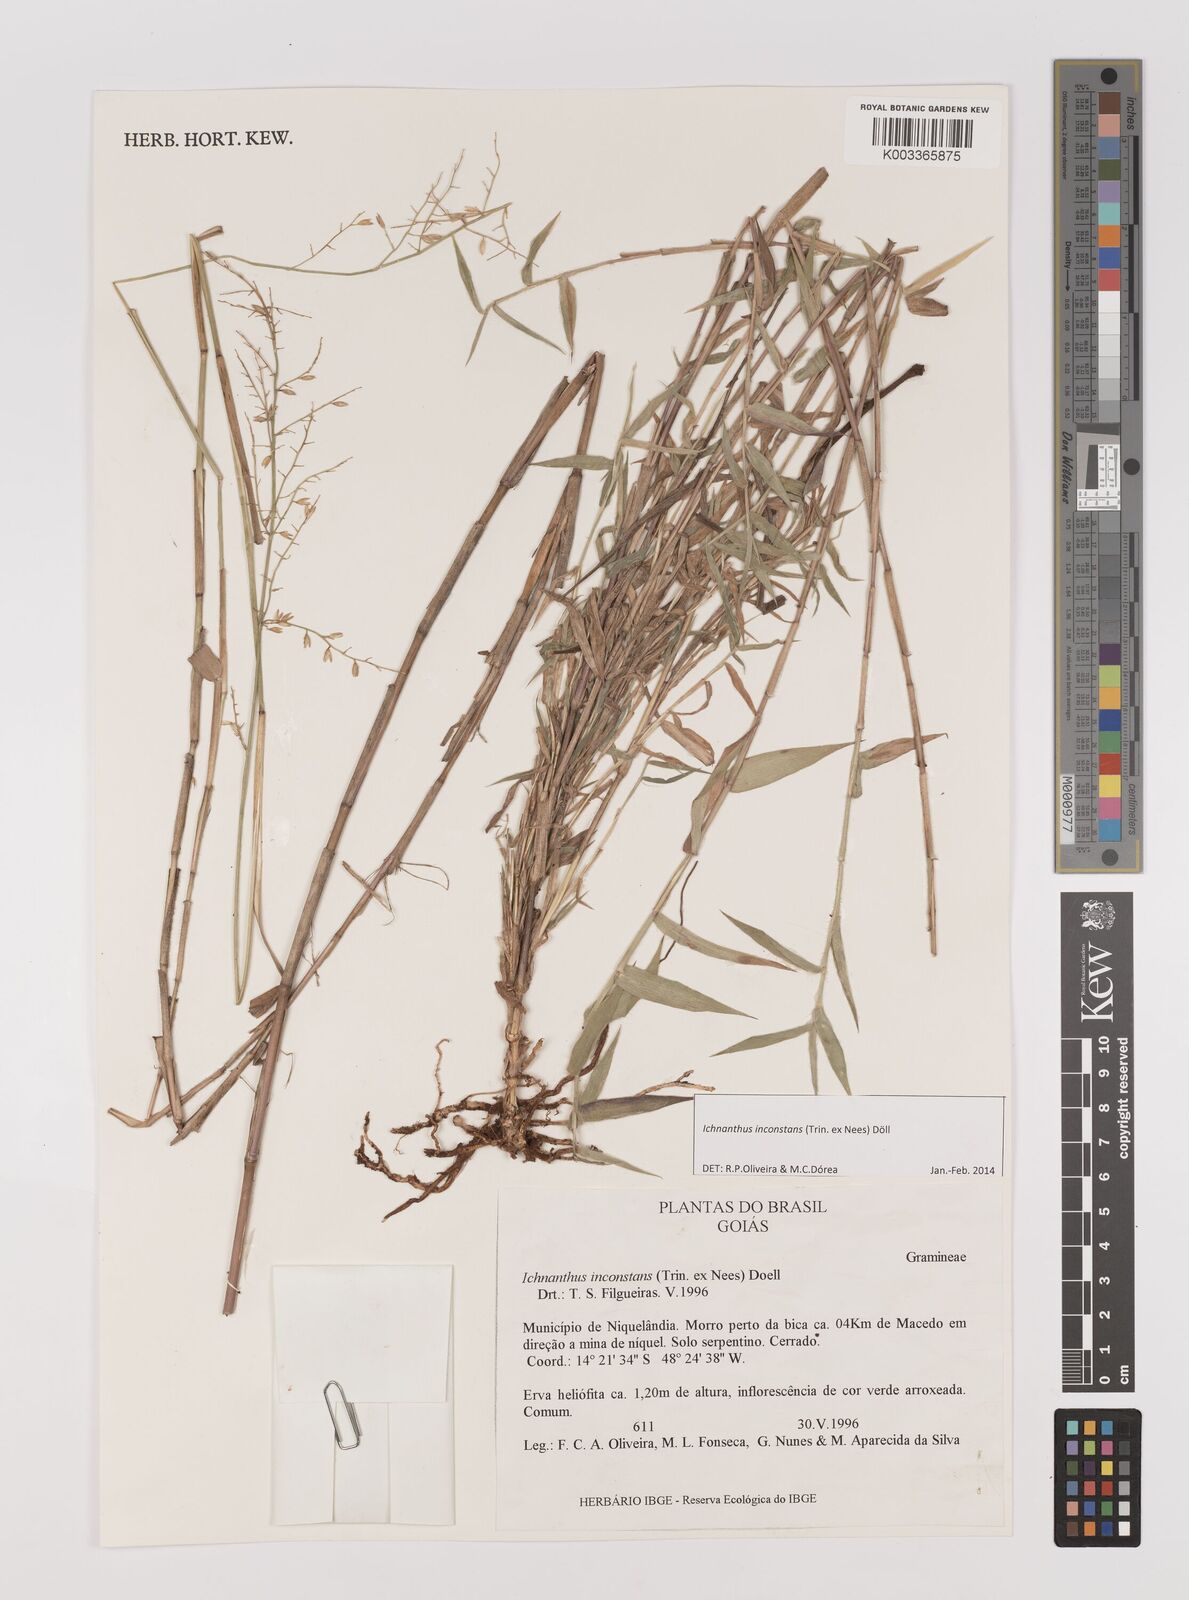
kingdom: Plantae
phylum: Tracheophyta
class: Liliopsida
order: Poales
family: Poaceae
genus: Ichnanthus
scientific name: Ichnanthus inconstans
